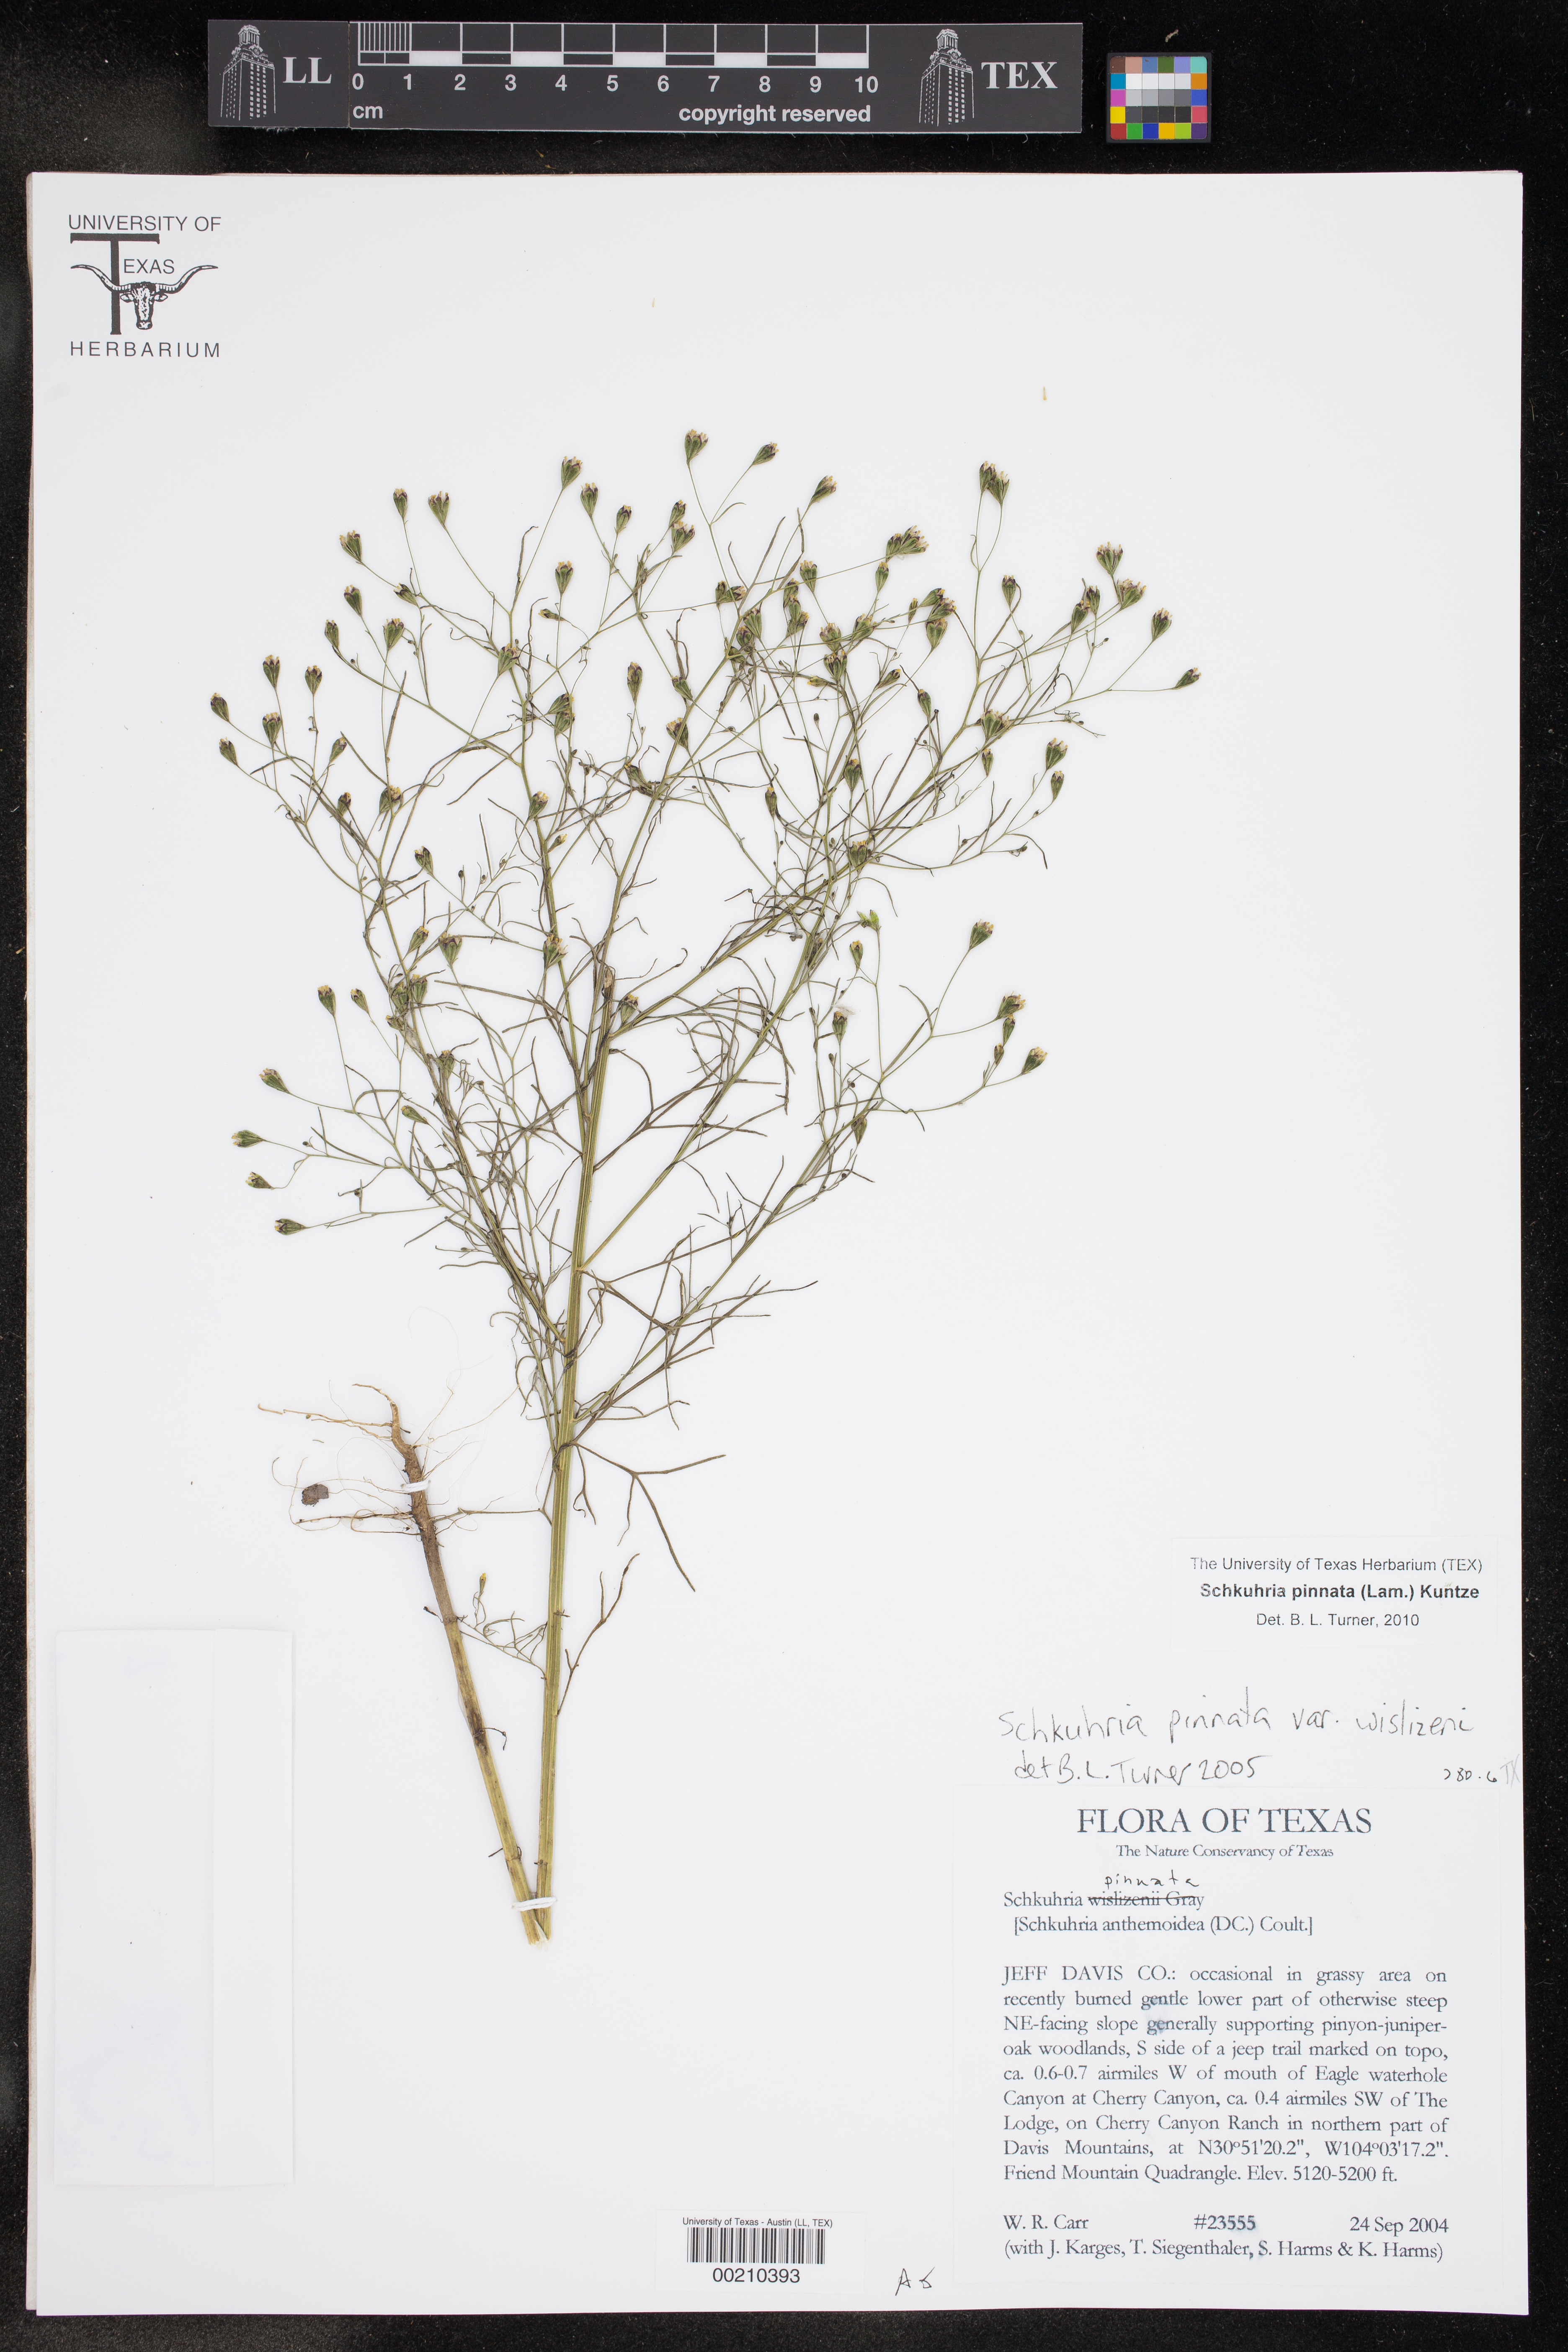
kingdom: Plantae
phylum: Tracheophyta
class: Magnoliopsida
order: Asterales
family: Asteraceae
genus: Schkuhria
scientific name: Schkuhria pinnata
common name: Dwarf marigold
